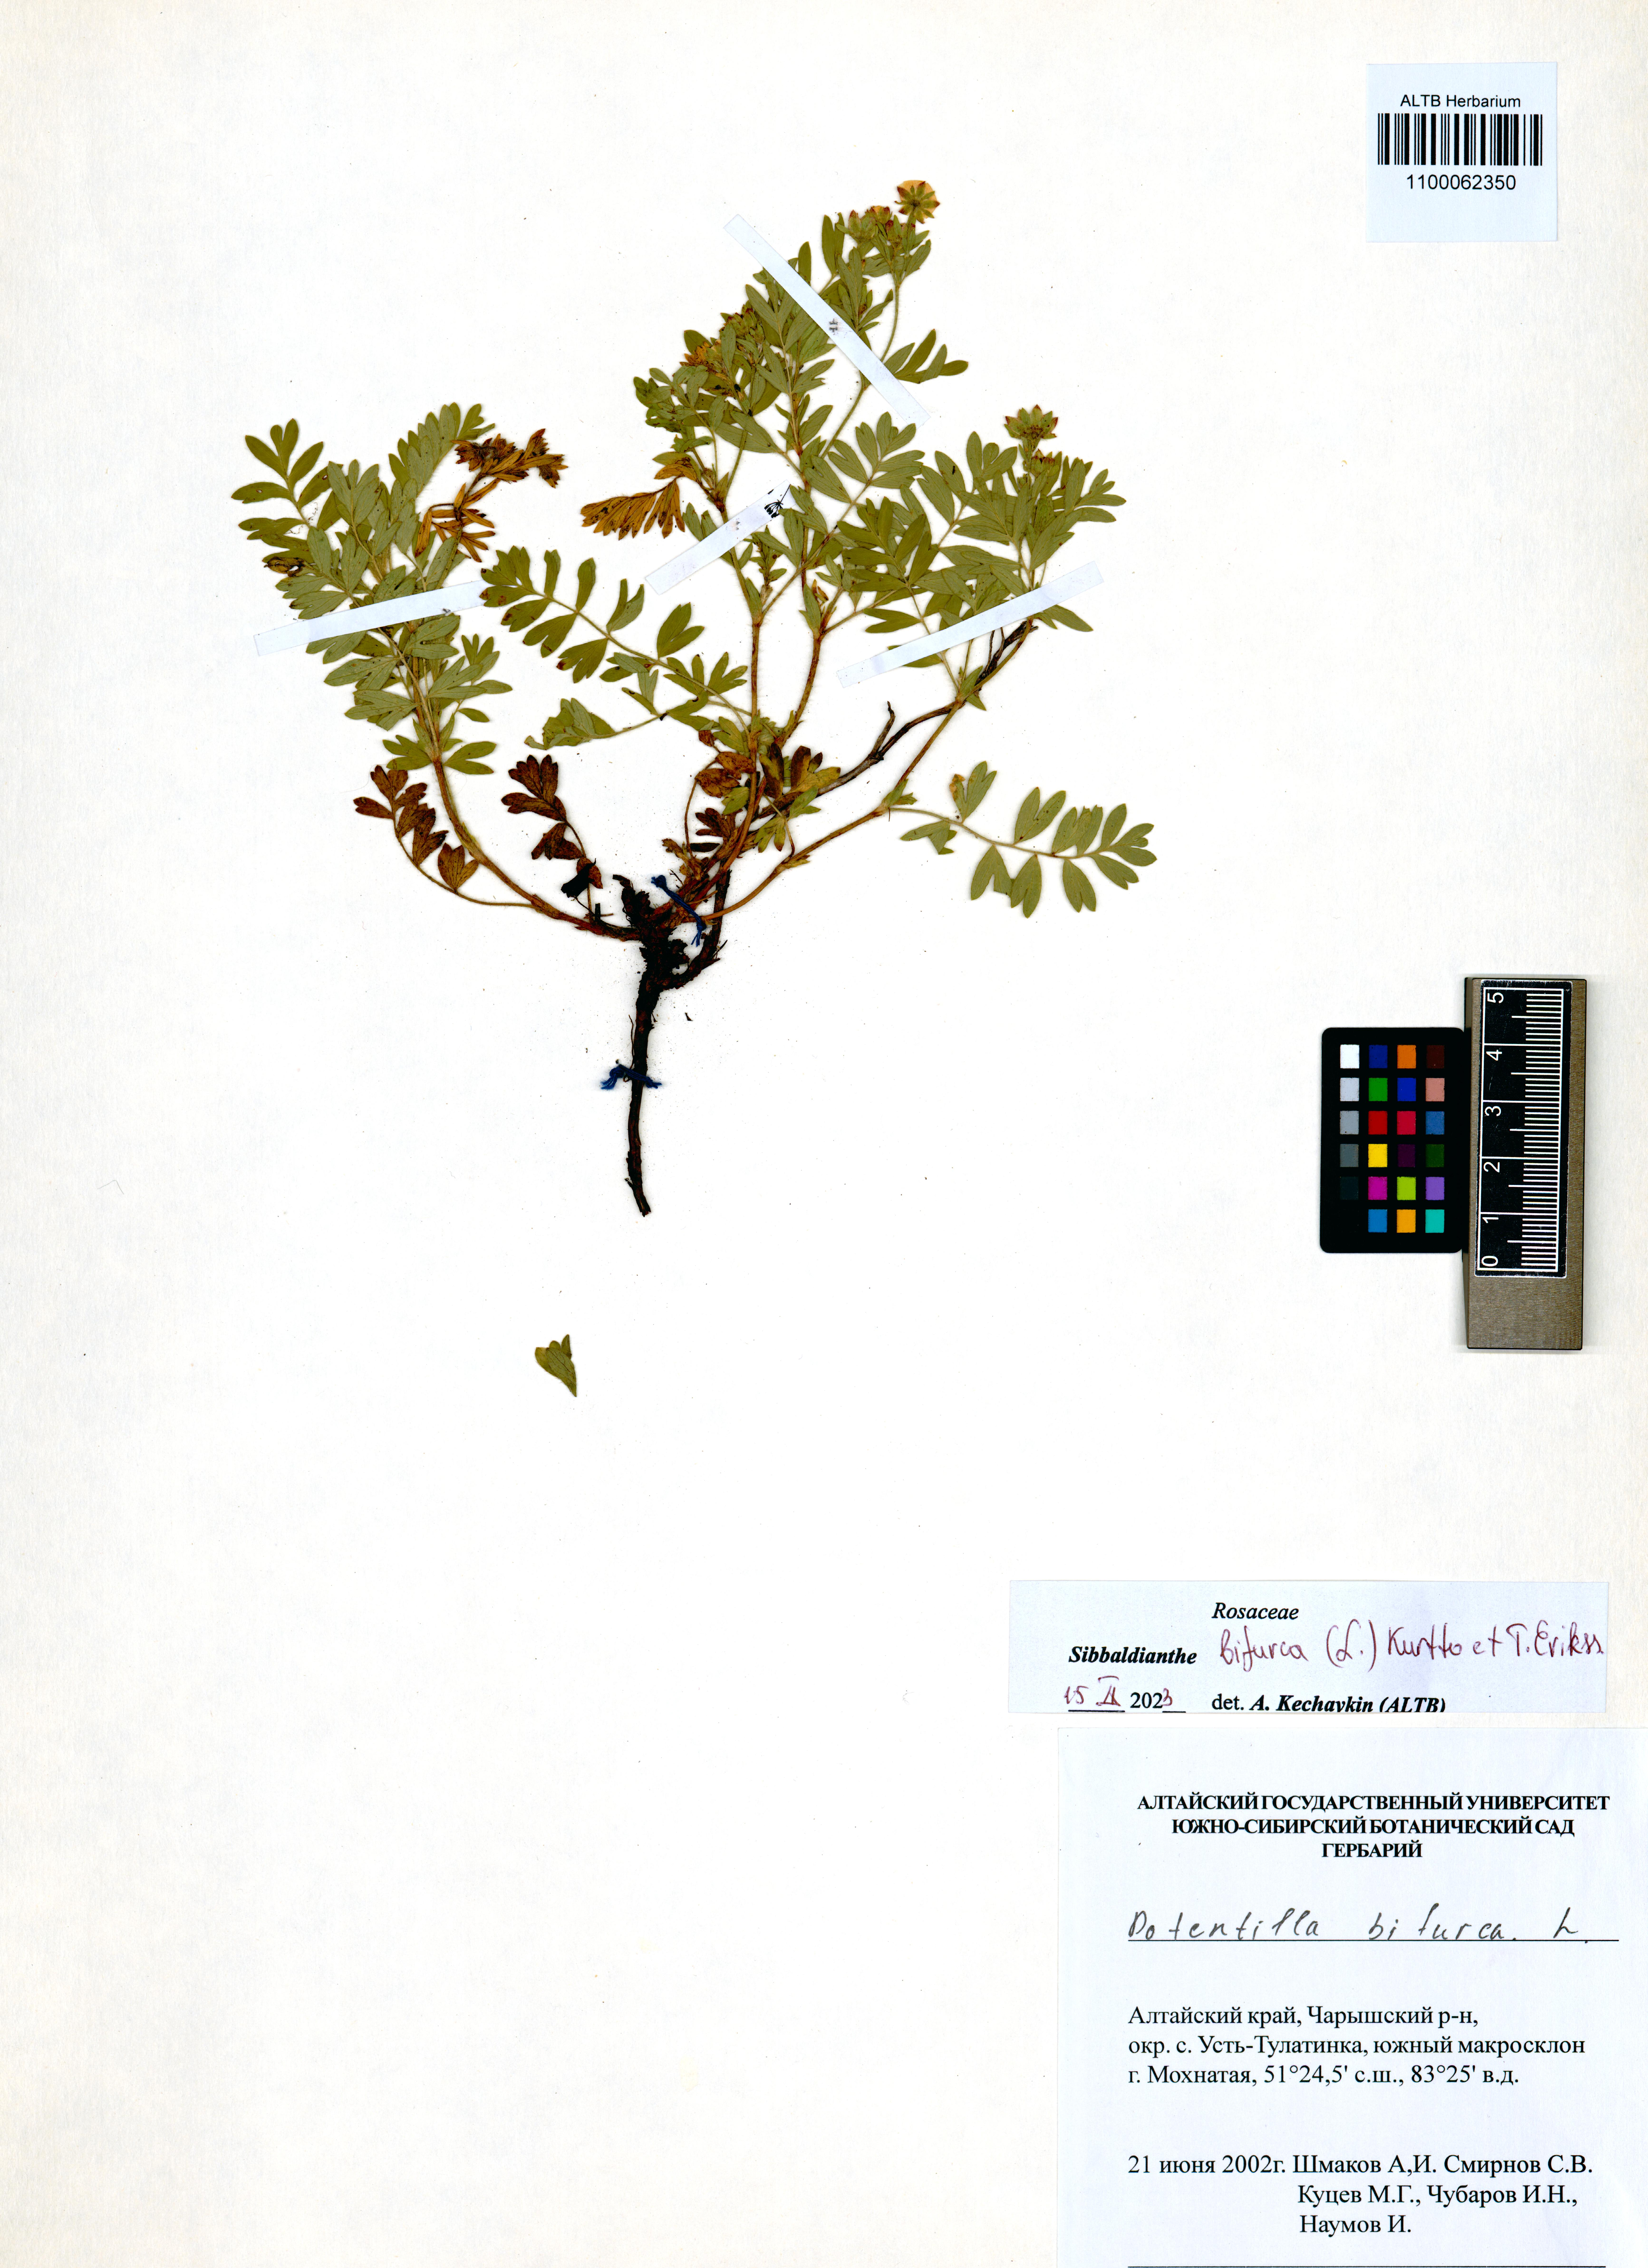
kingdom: Plantae
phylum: Tracheophyta
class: Magnoliopsida
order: Rosales
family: Rosaceae
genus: Sibbaldianthe
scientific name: Sibbaldianthe bifurca
